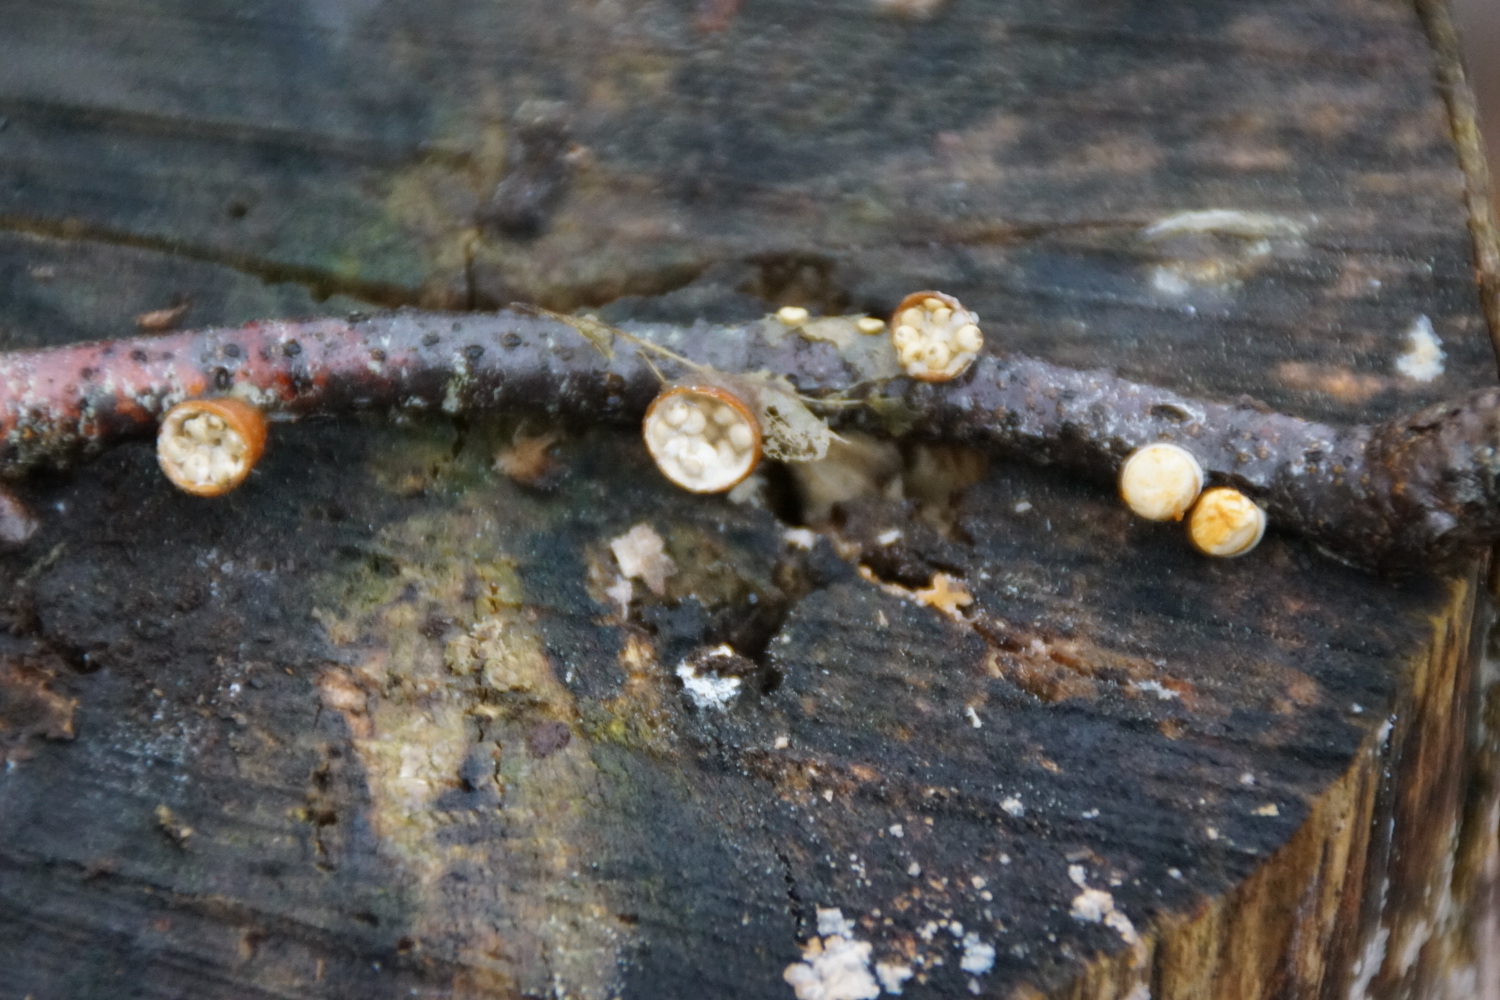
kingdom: Fungi
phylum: Basidiomycota
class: Agaricomycetes
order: Agaricales
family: Nidulariaceae
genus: Crucibulum
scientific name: Crucibulum crucibuliforme
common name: krukkesvamp
